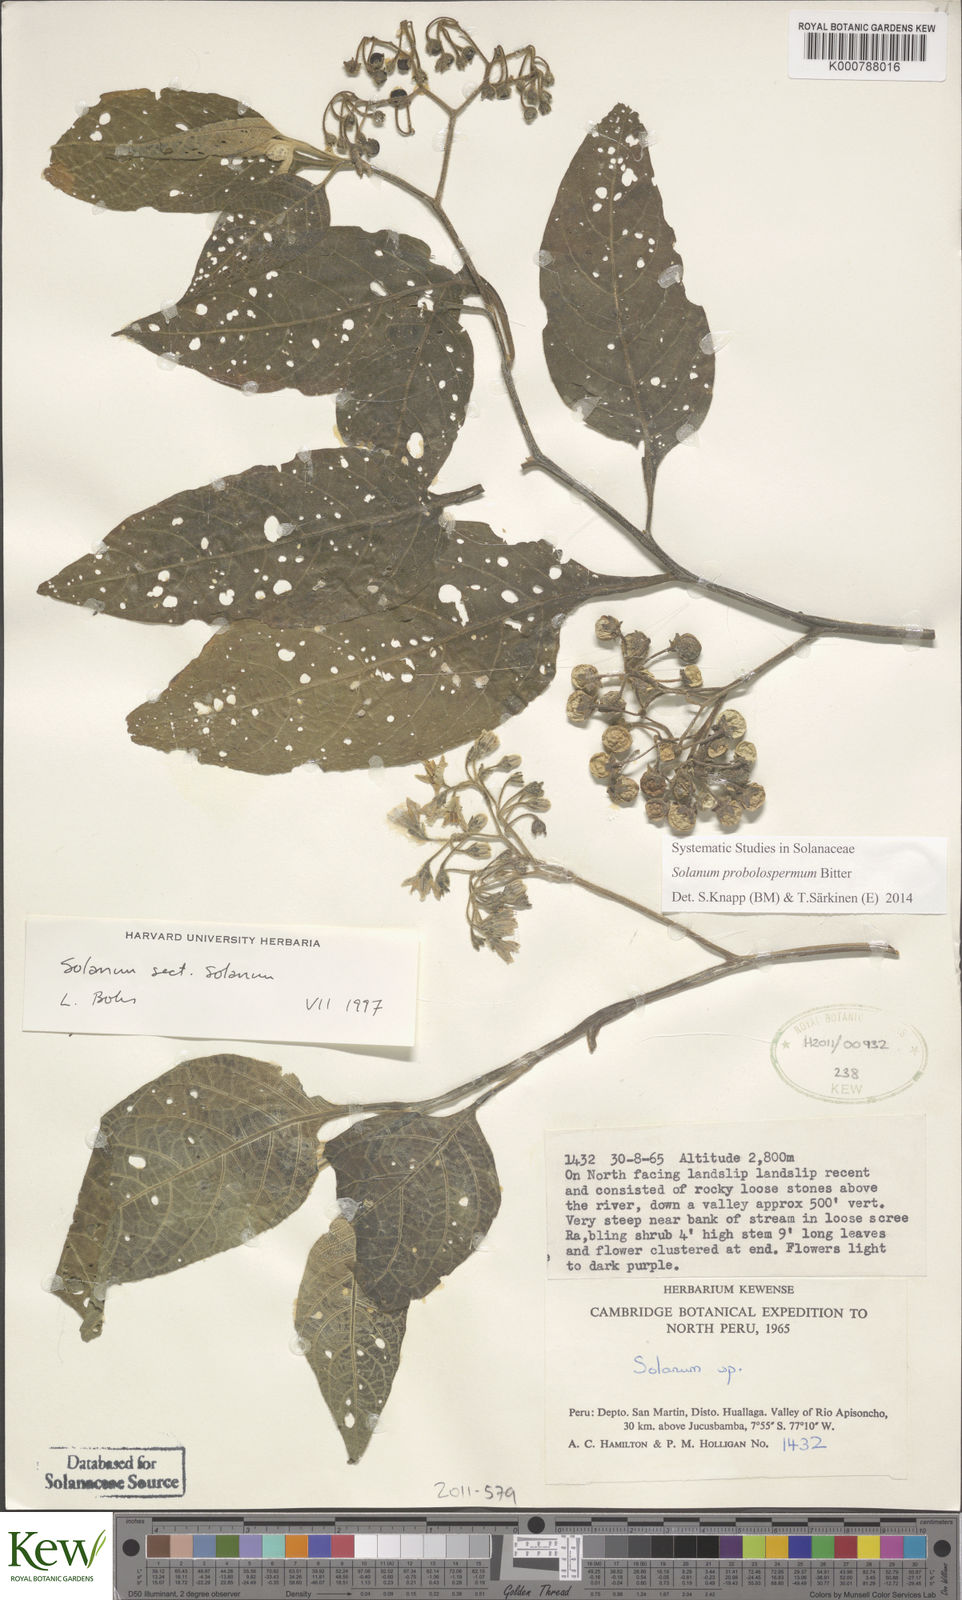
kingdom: Plantae
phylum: Tracheophyta
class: Magnoliopsida
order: Solanales
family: Solanaceae
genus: Solanum
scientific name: Solanum probolospermum
